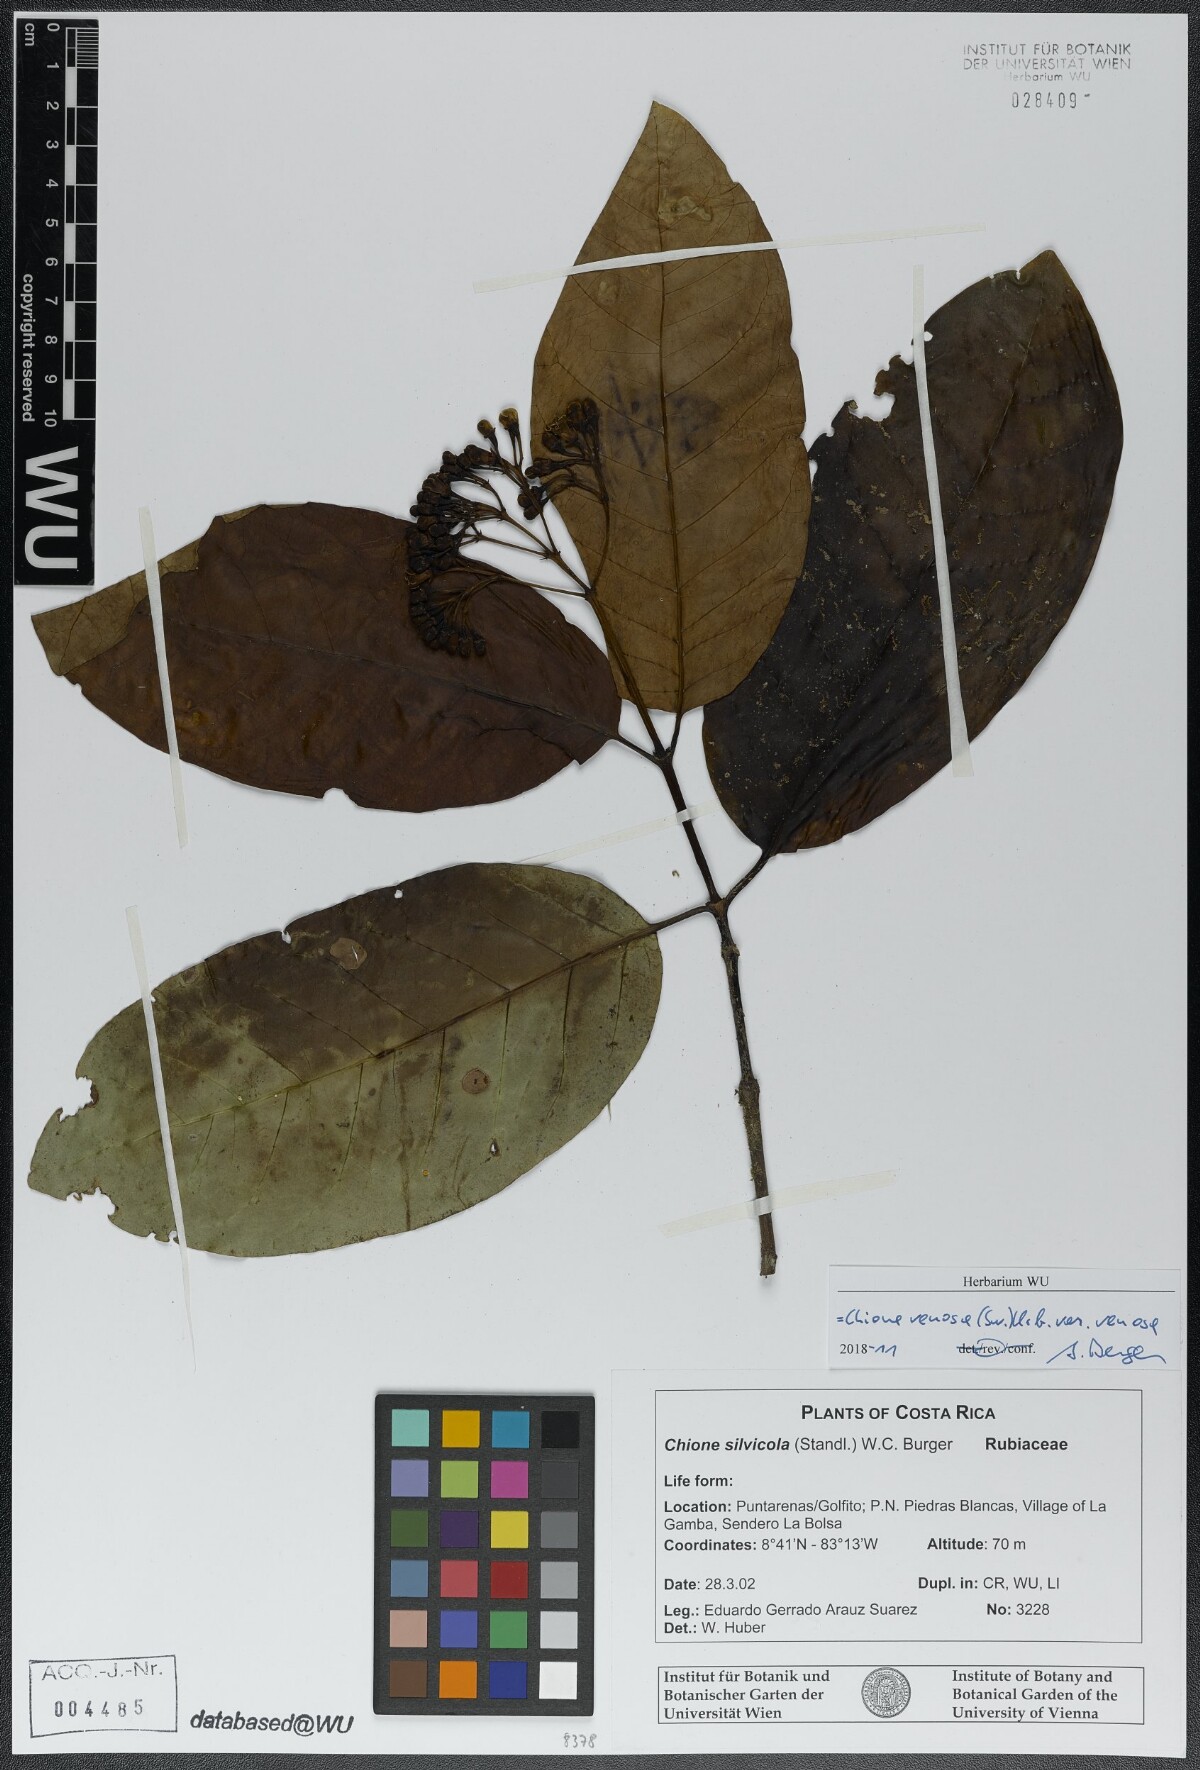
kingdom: Plantae
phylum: Tracheophyta
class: Magnoliopsida
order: Gentianales
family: Rubiaceae
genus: Chione
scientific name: Chione venosa
